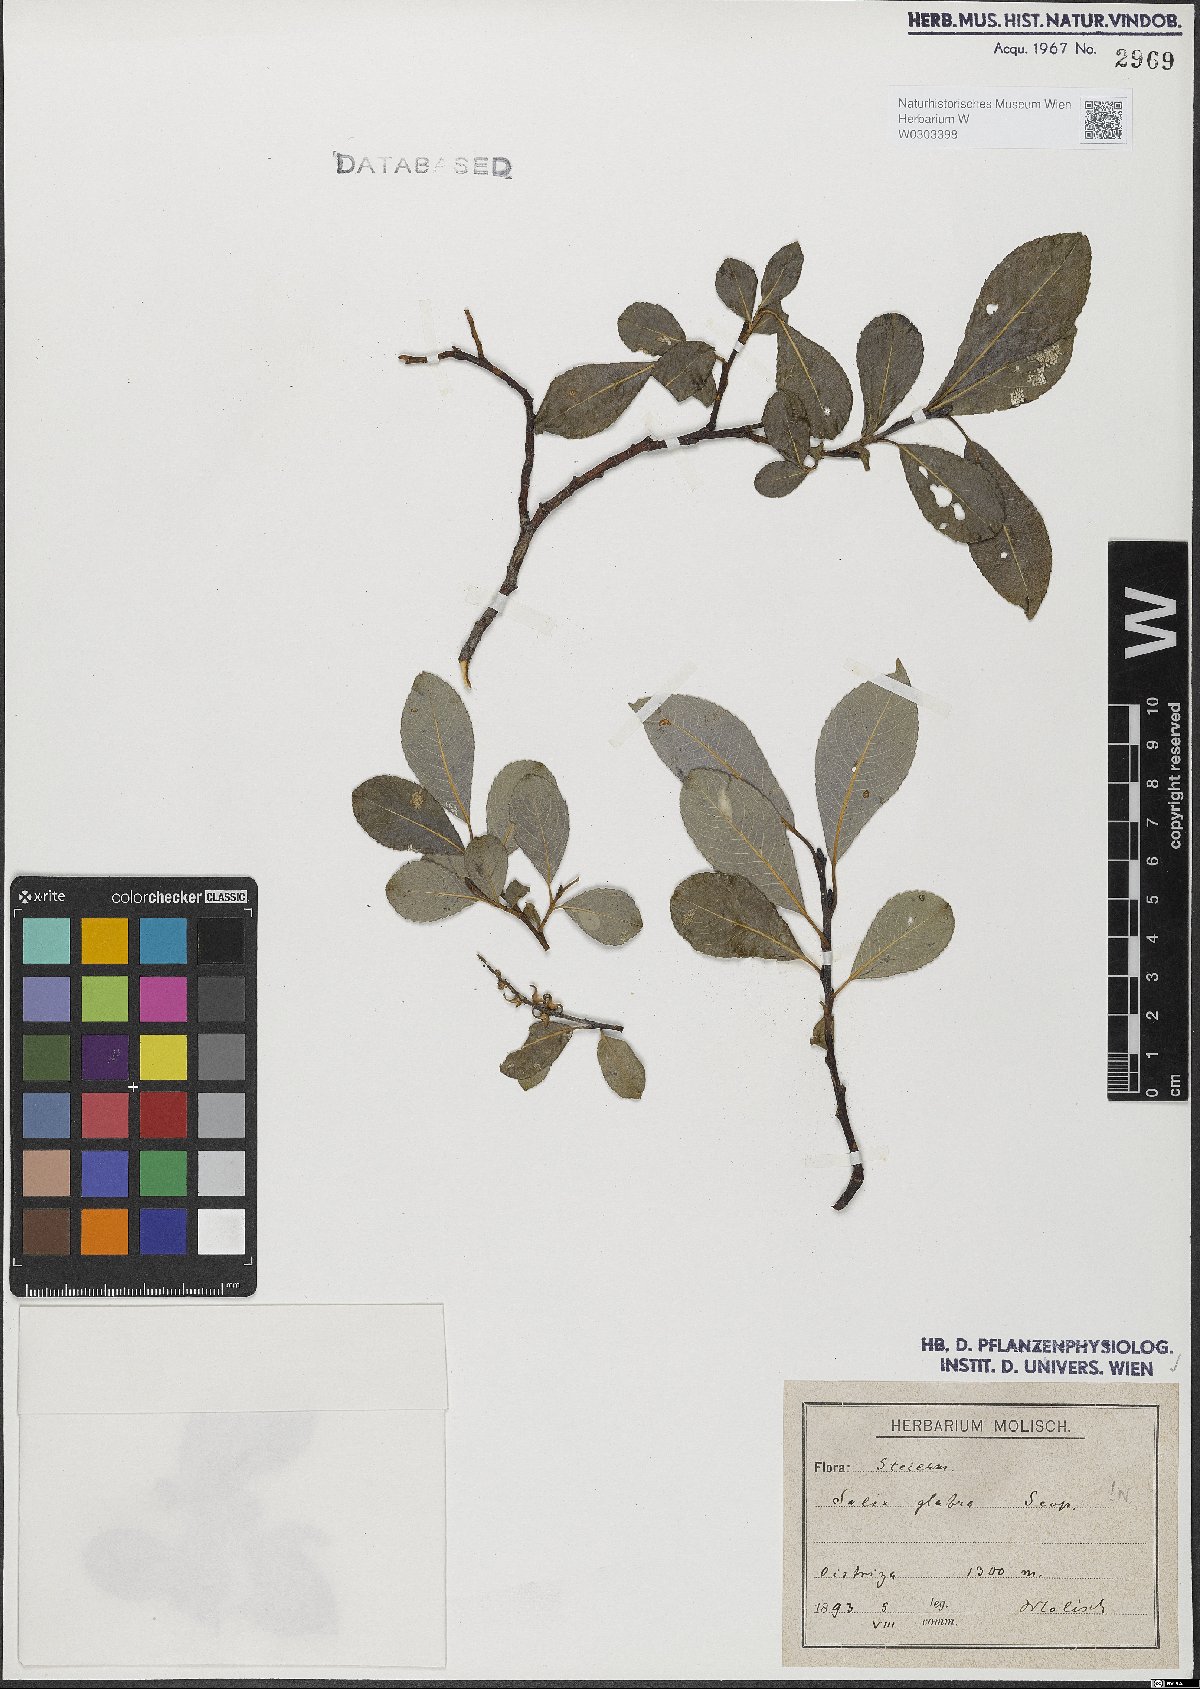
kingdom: Plantae
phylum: Tracheophyta
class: Magnoliopsida
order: Malpighiales
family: Salicaceae
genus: Salix
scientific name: Salix glabra
